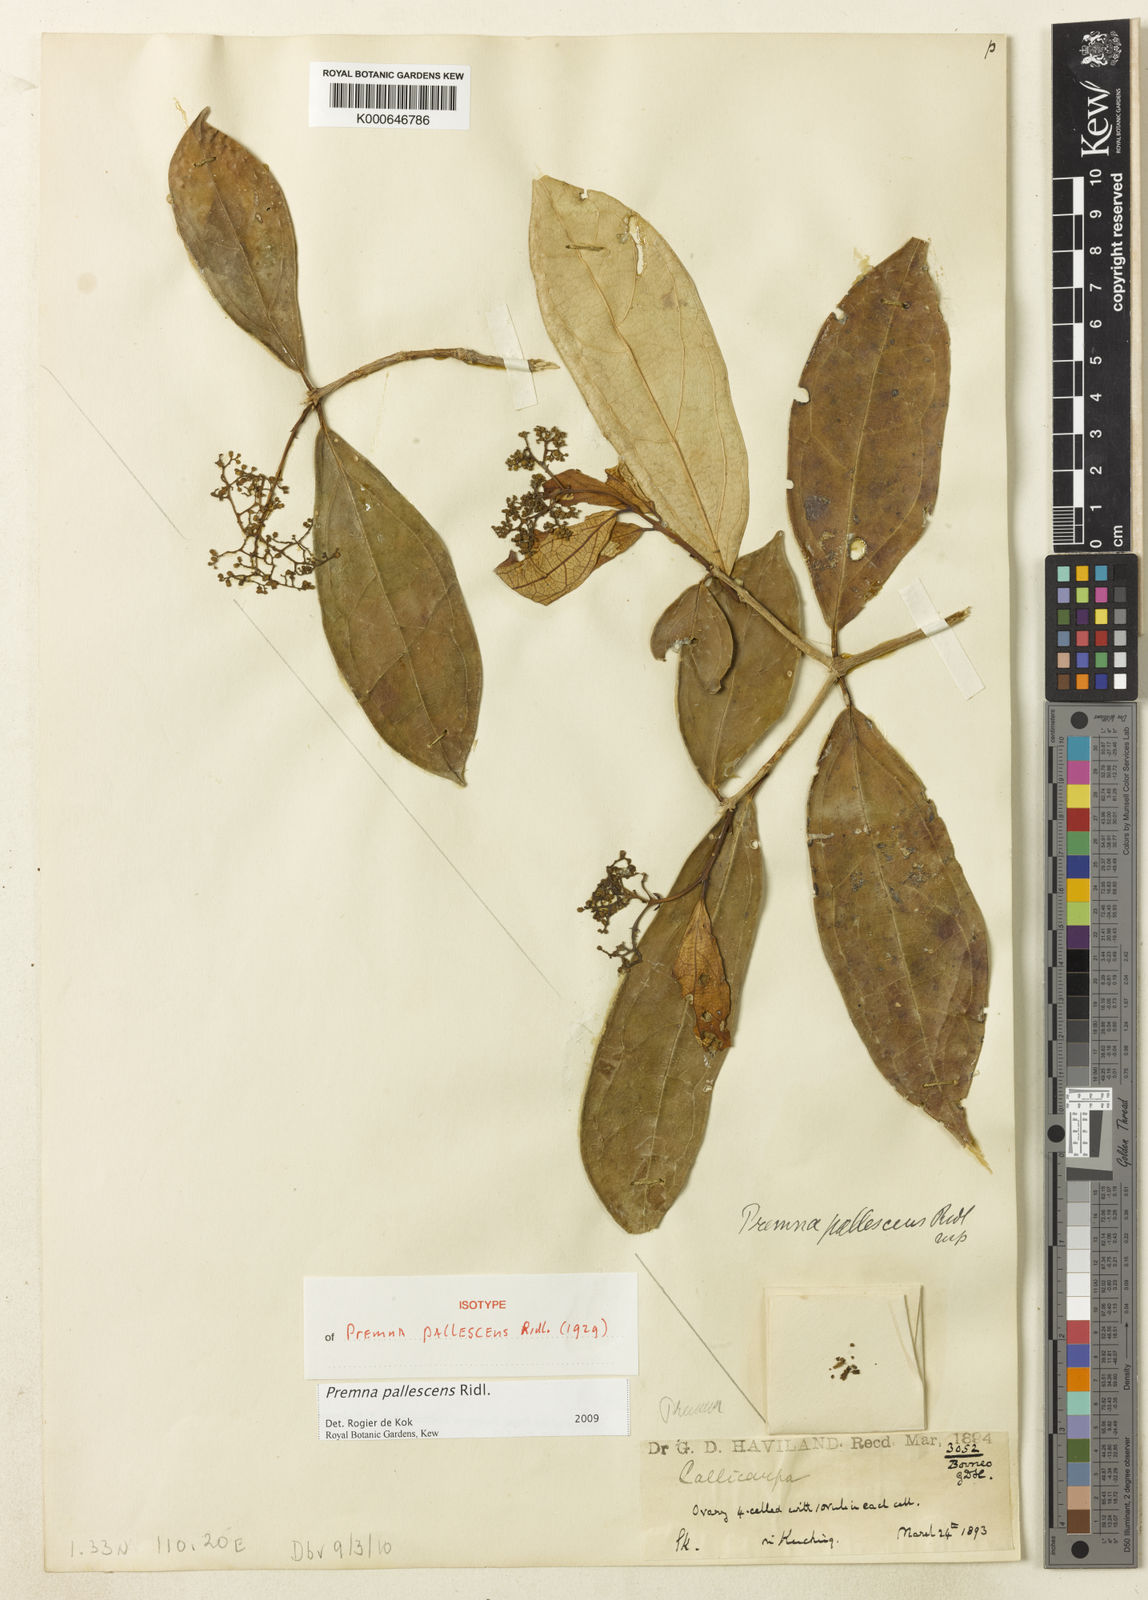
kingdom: Plantae
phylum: Tracheophyta
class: Magnoliopsida
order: Lamiales
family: Lamiaceae
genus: Premna
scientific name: Premna pallescens
